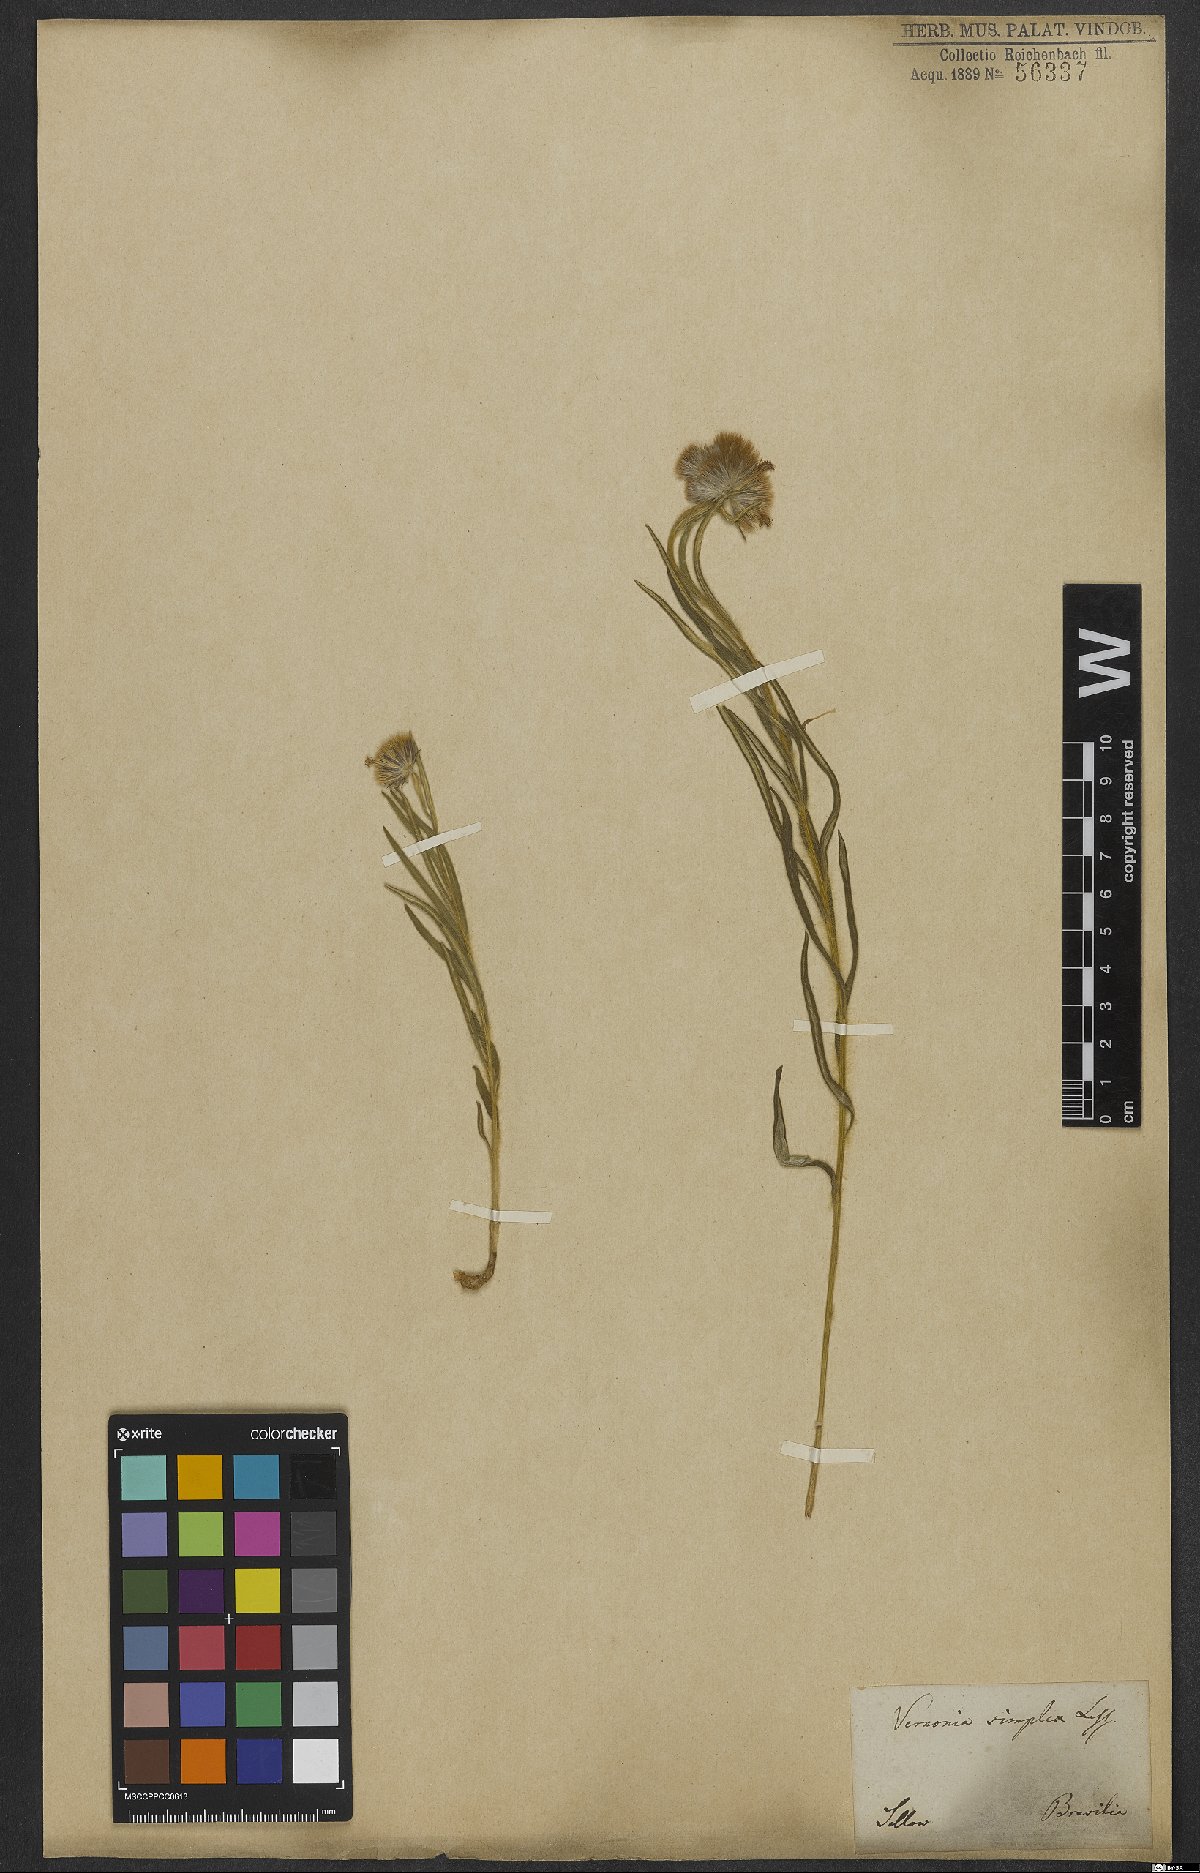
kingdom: Plantae
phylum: Tracheophyta
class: Magnoliopsida
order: Asterales
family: Asteraceae
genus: Chrysolaena
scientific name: Chrysolaena simplex
